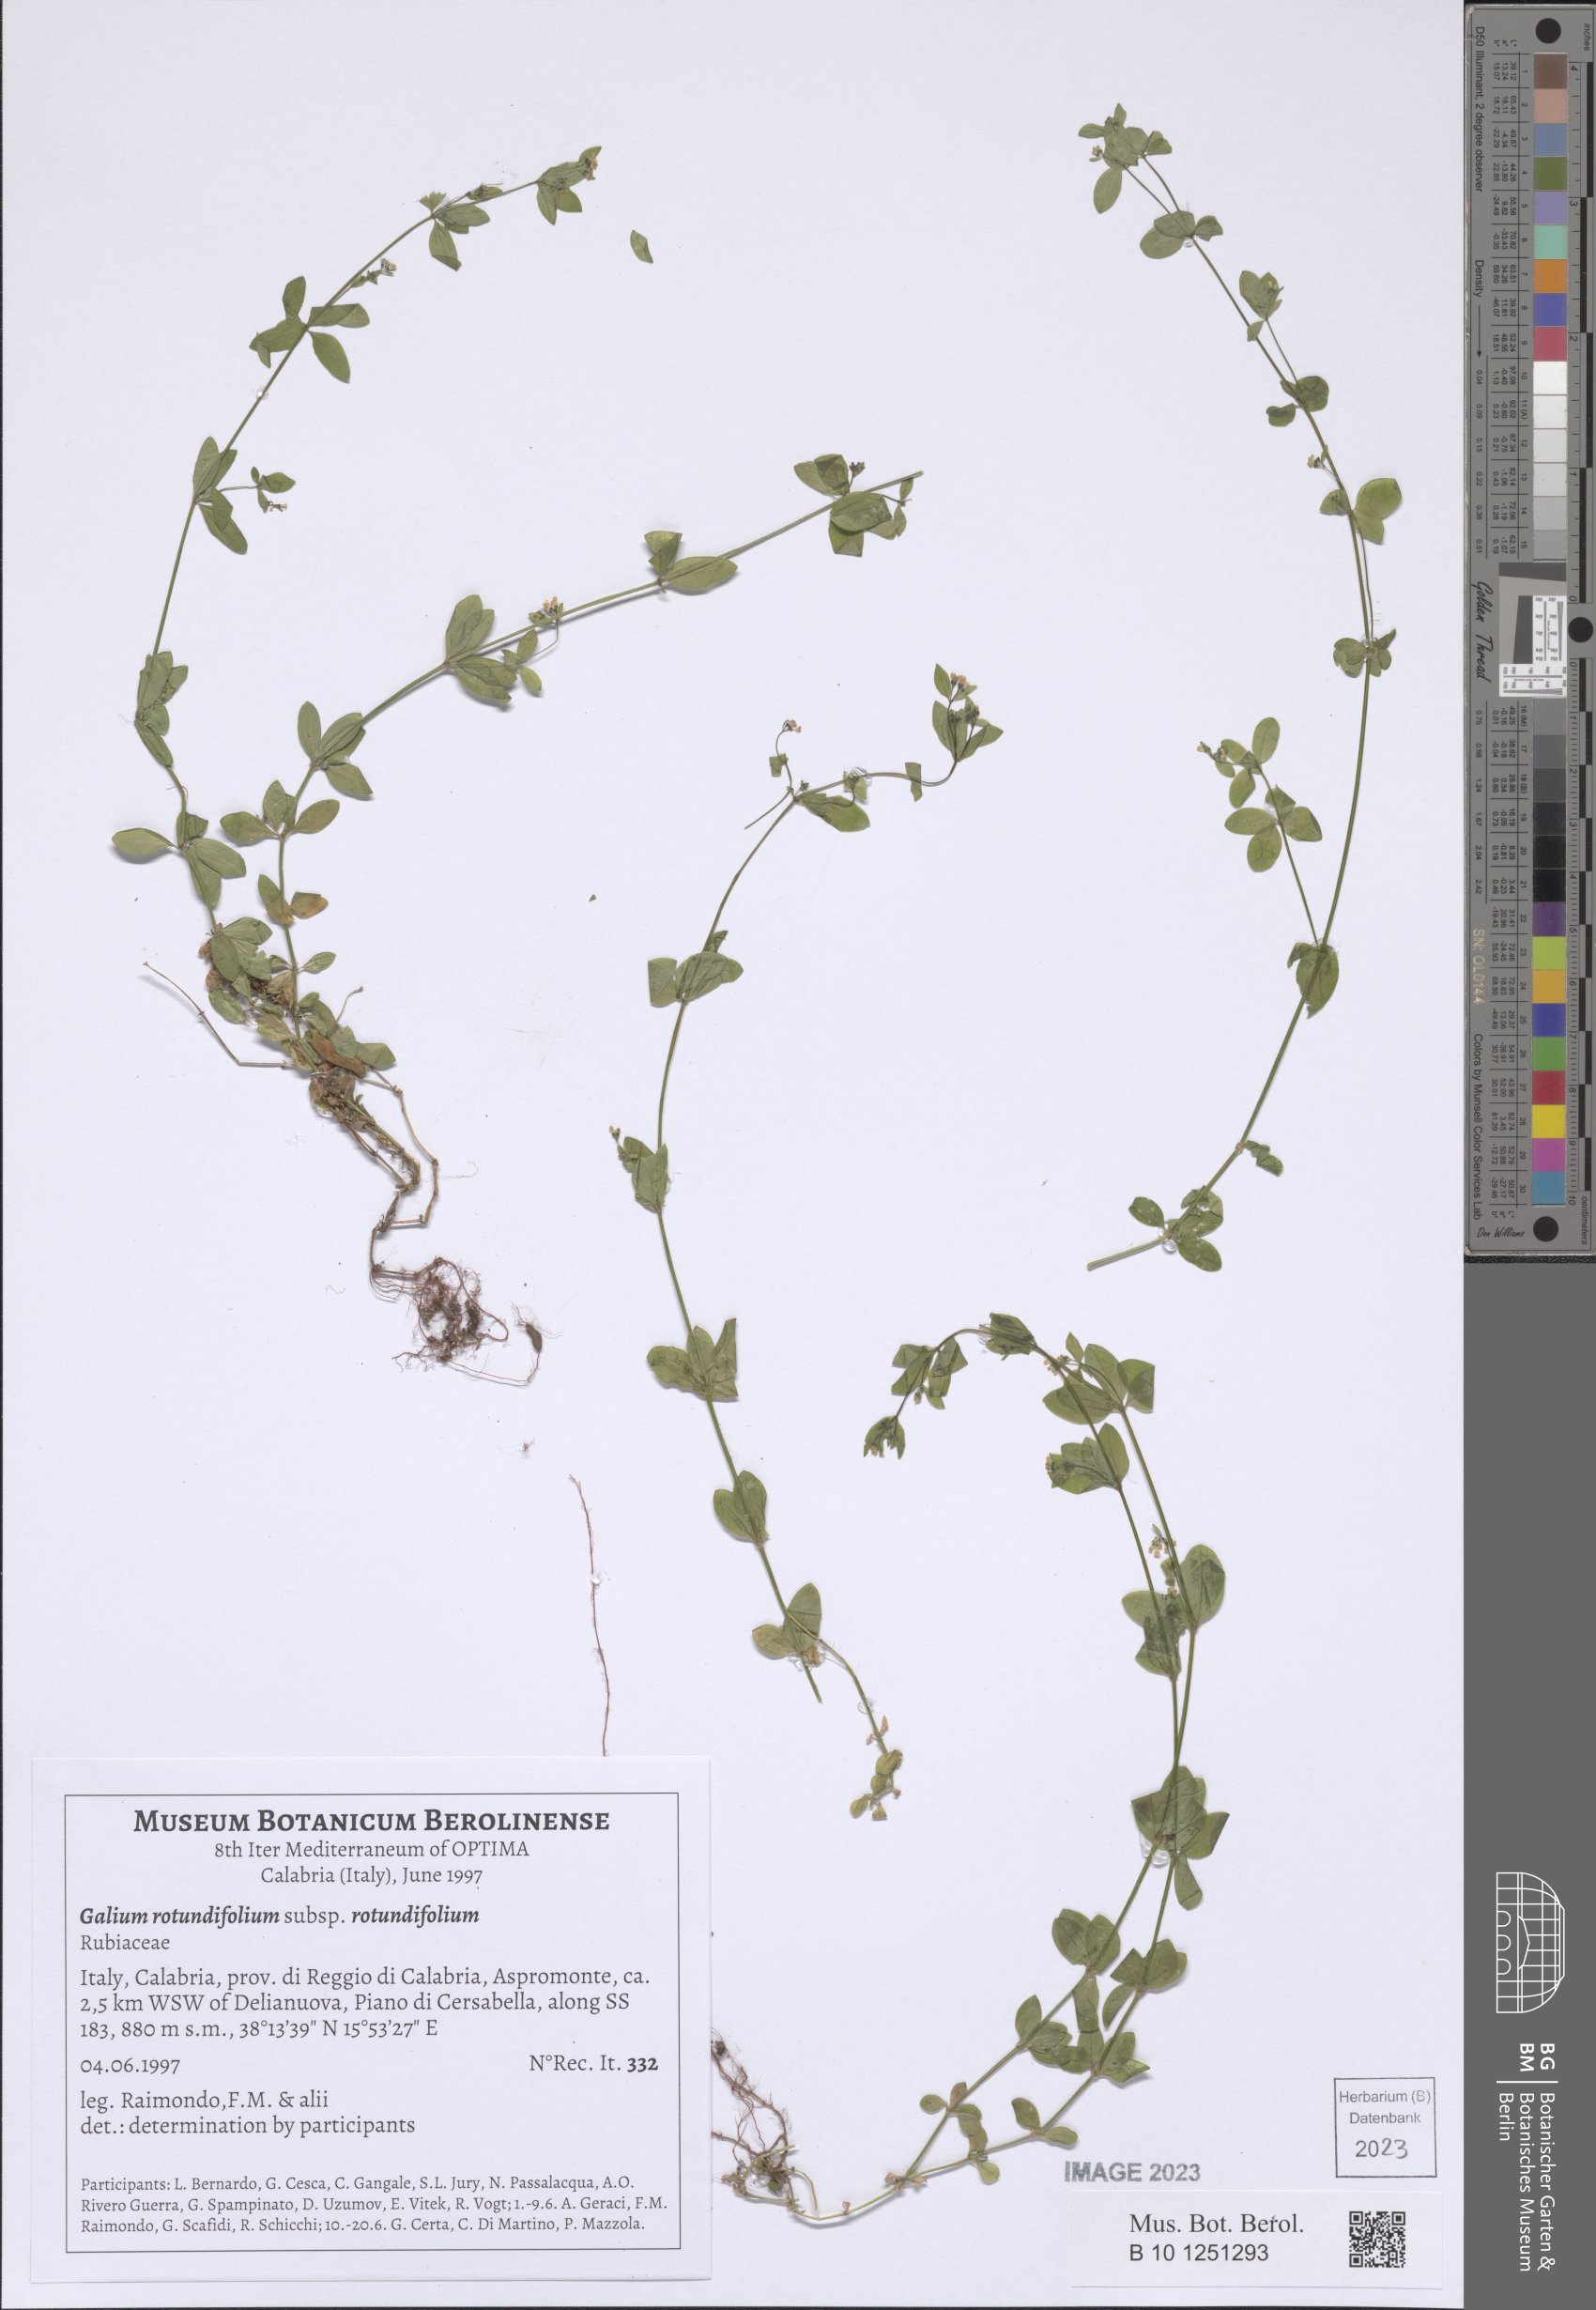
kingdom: Plantae
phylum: Tracheophyta
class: Magnoliopsida
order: Gentianales
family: Rubiaceae
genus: Galium
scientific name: Galium rotundifolium
